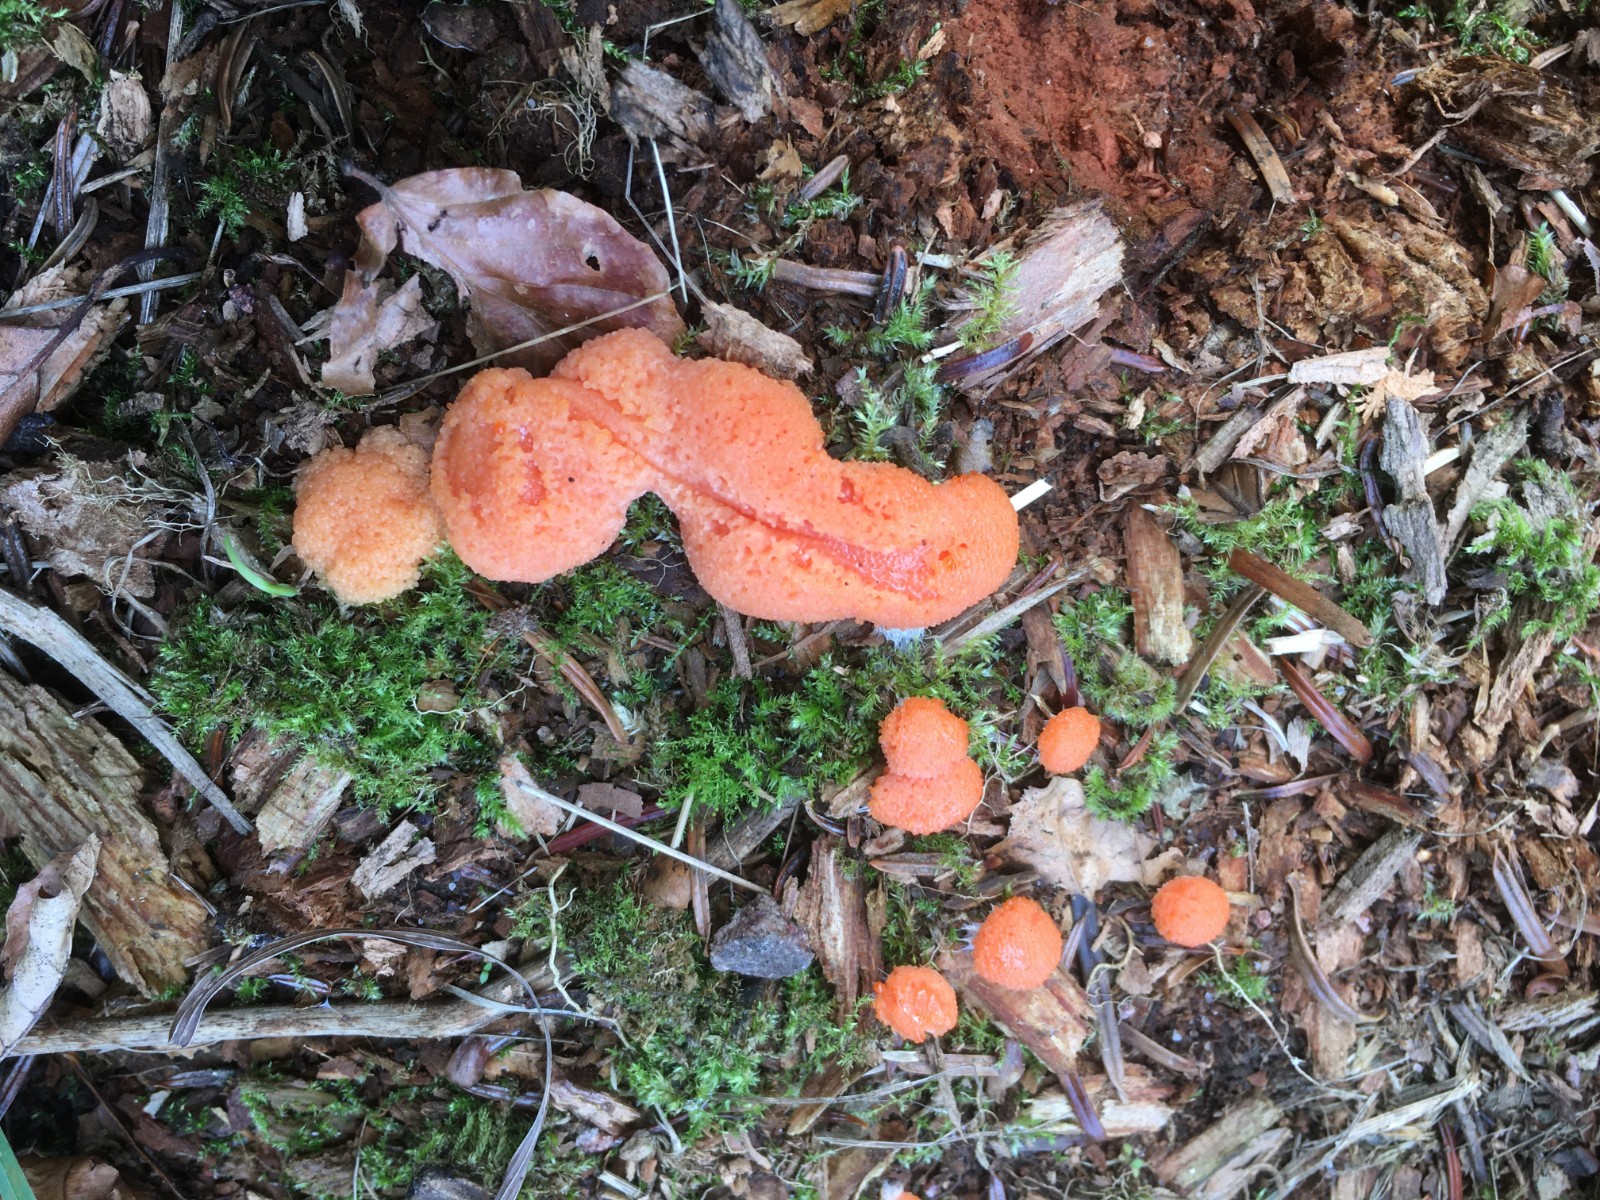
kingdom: Protozoa
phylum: Mycetozoa
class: Myxomycetes
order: Cribrariales
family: Tubiferaceae
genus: Tubifera
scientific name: Tubifera ferruginosa
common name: kanel-støvrør
